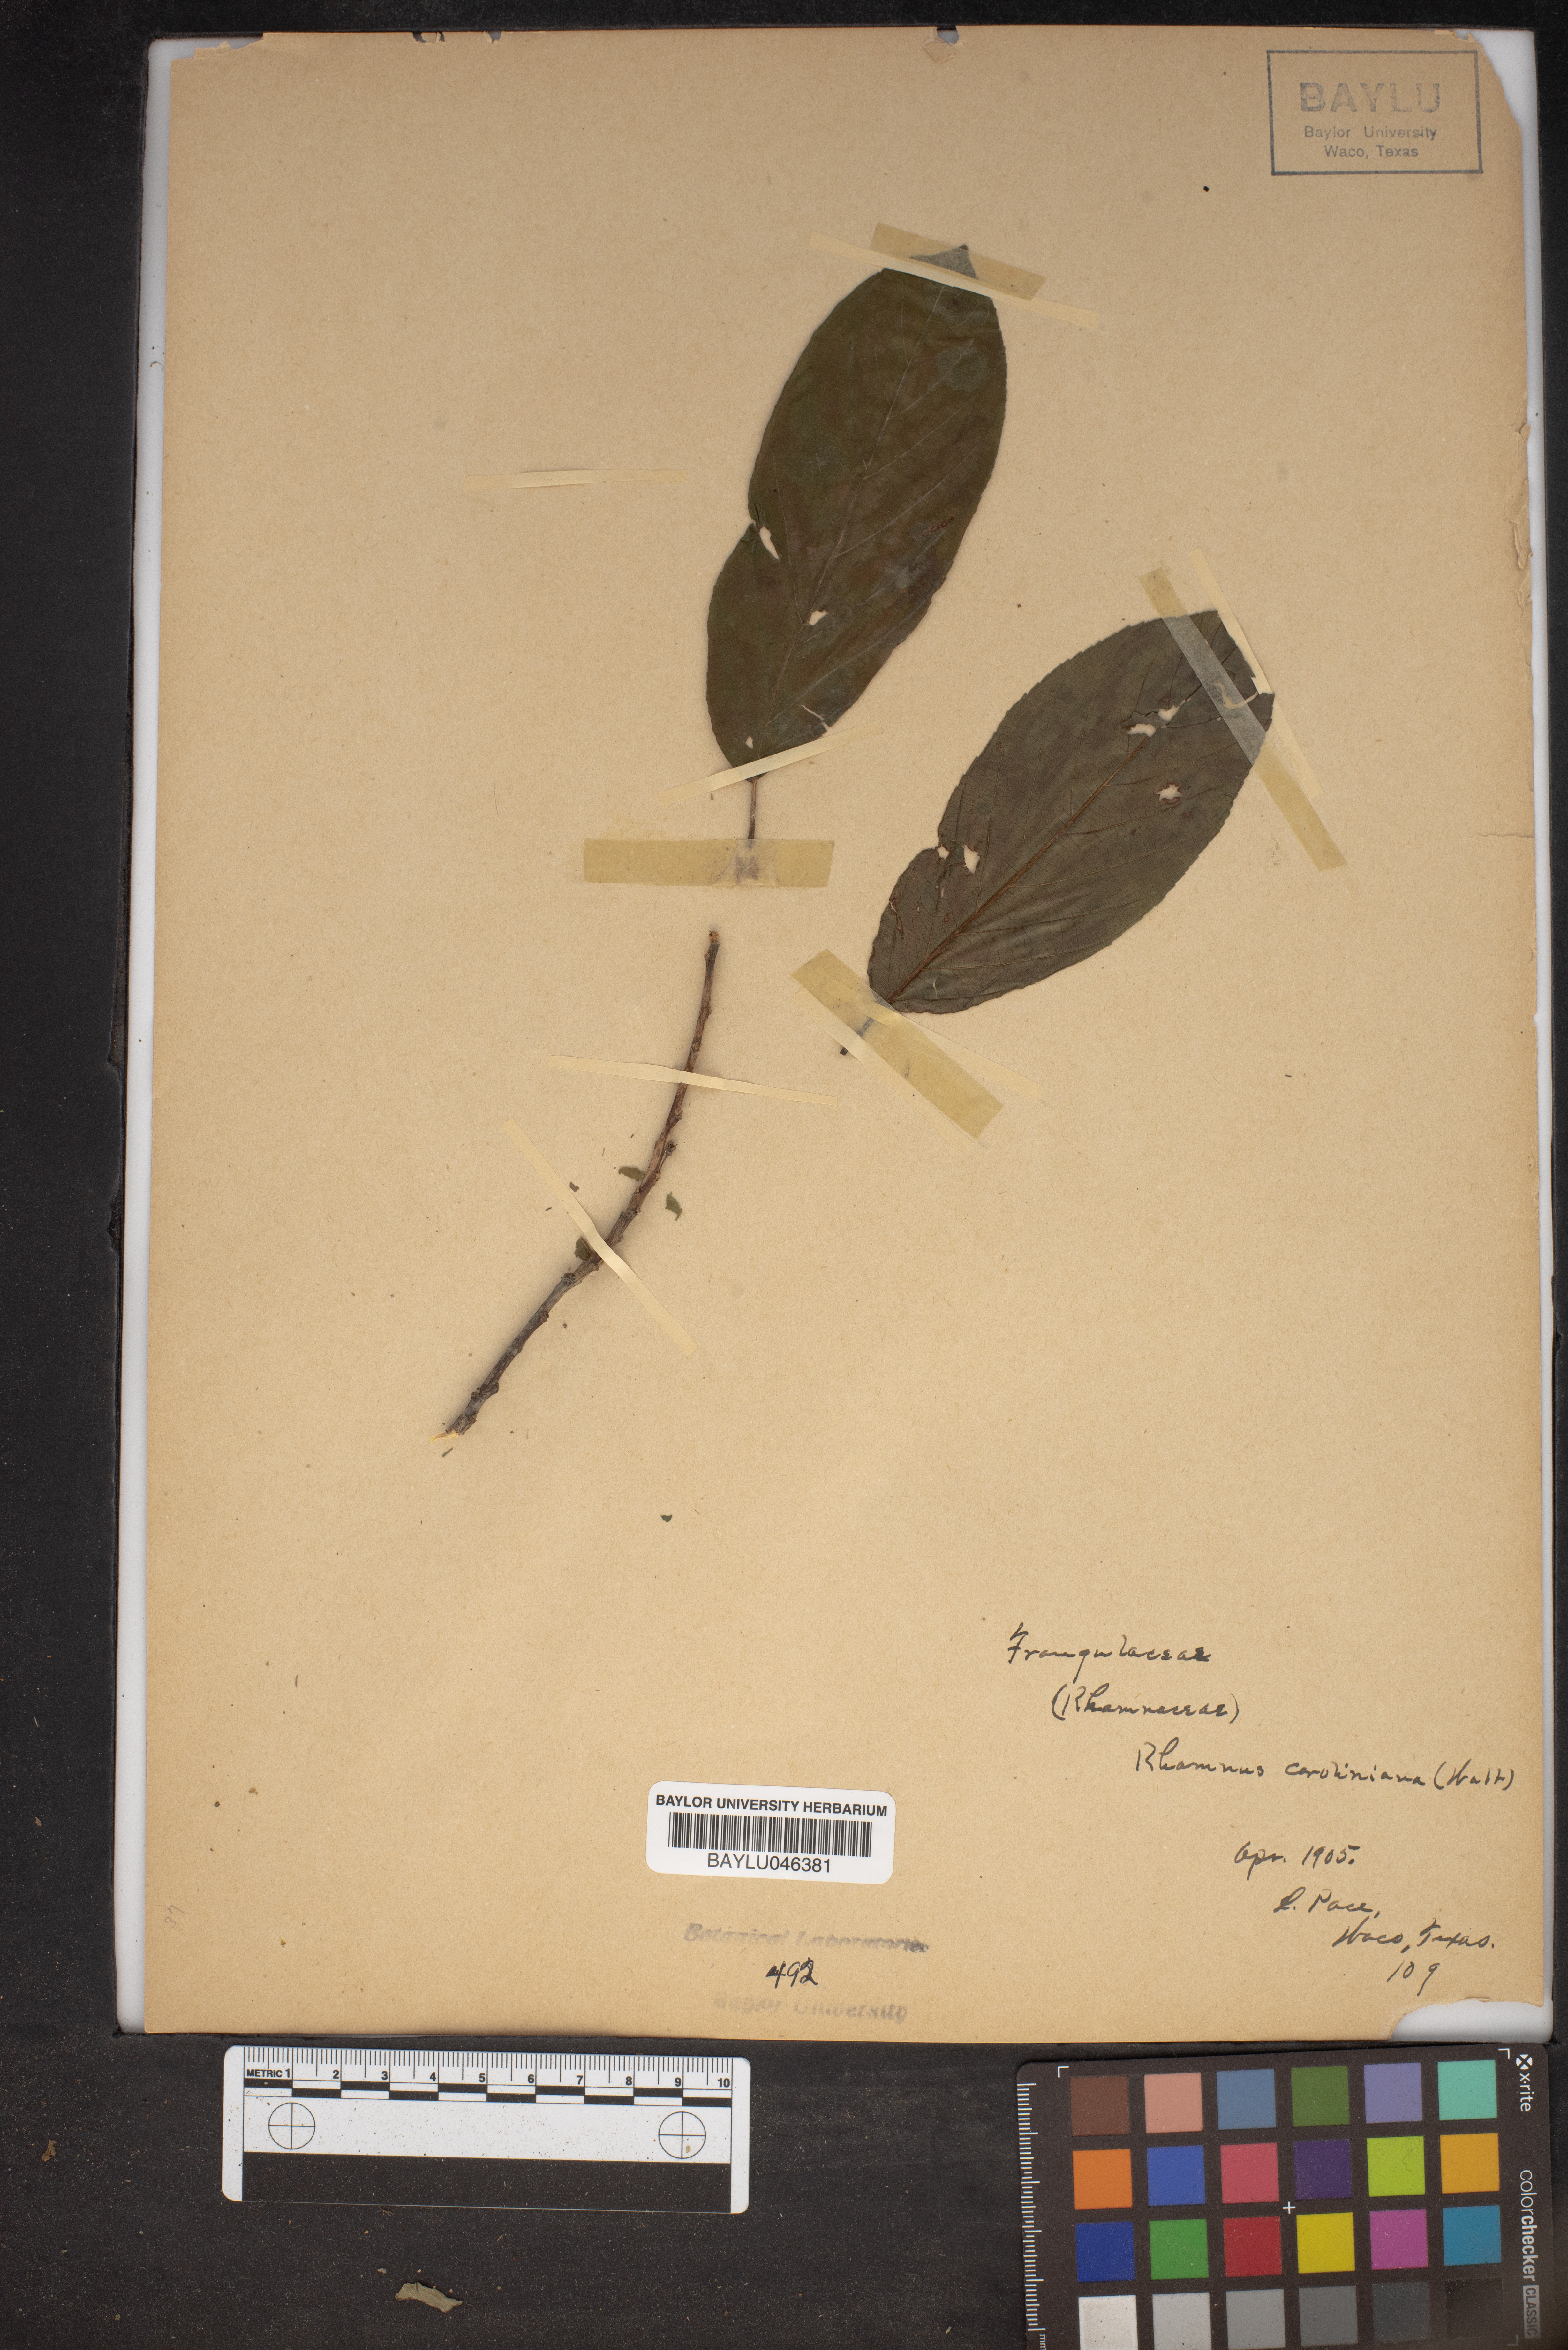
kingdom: Plantae
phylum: Tracheophyta
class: Magnoliopsida
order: Rosales
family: Rhamnaceae
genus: Frangula
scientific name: Frangula caroliniana
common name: Carolina buckthorn
